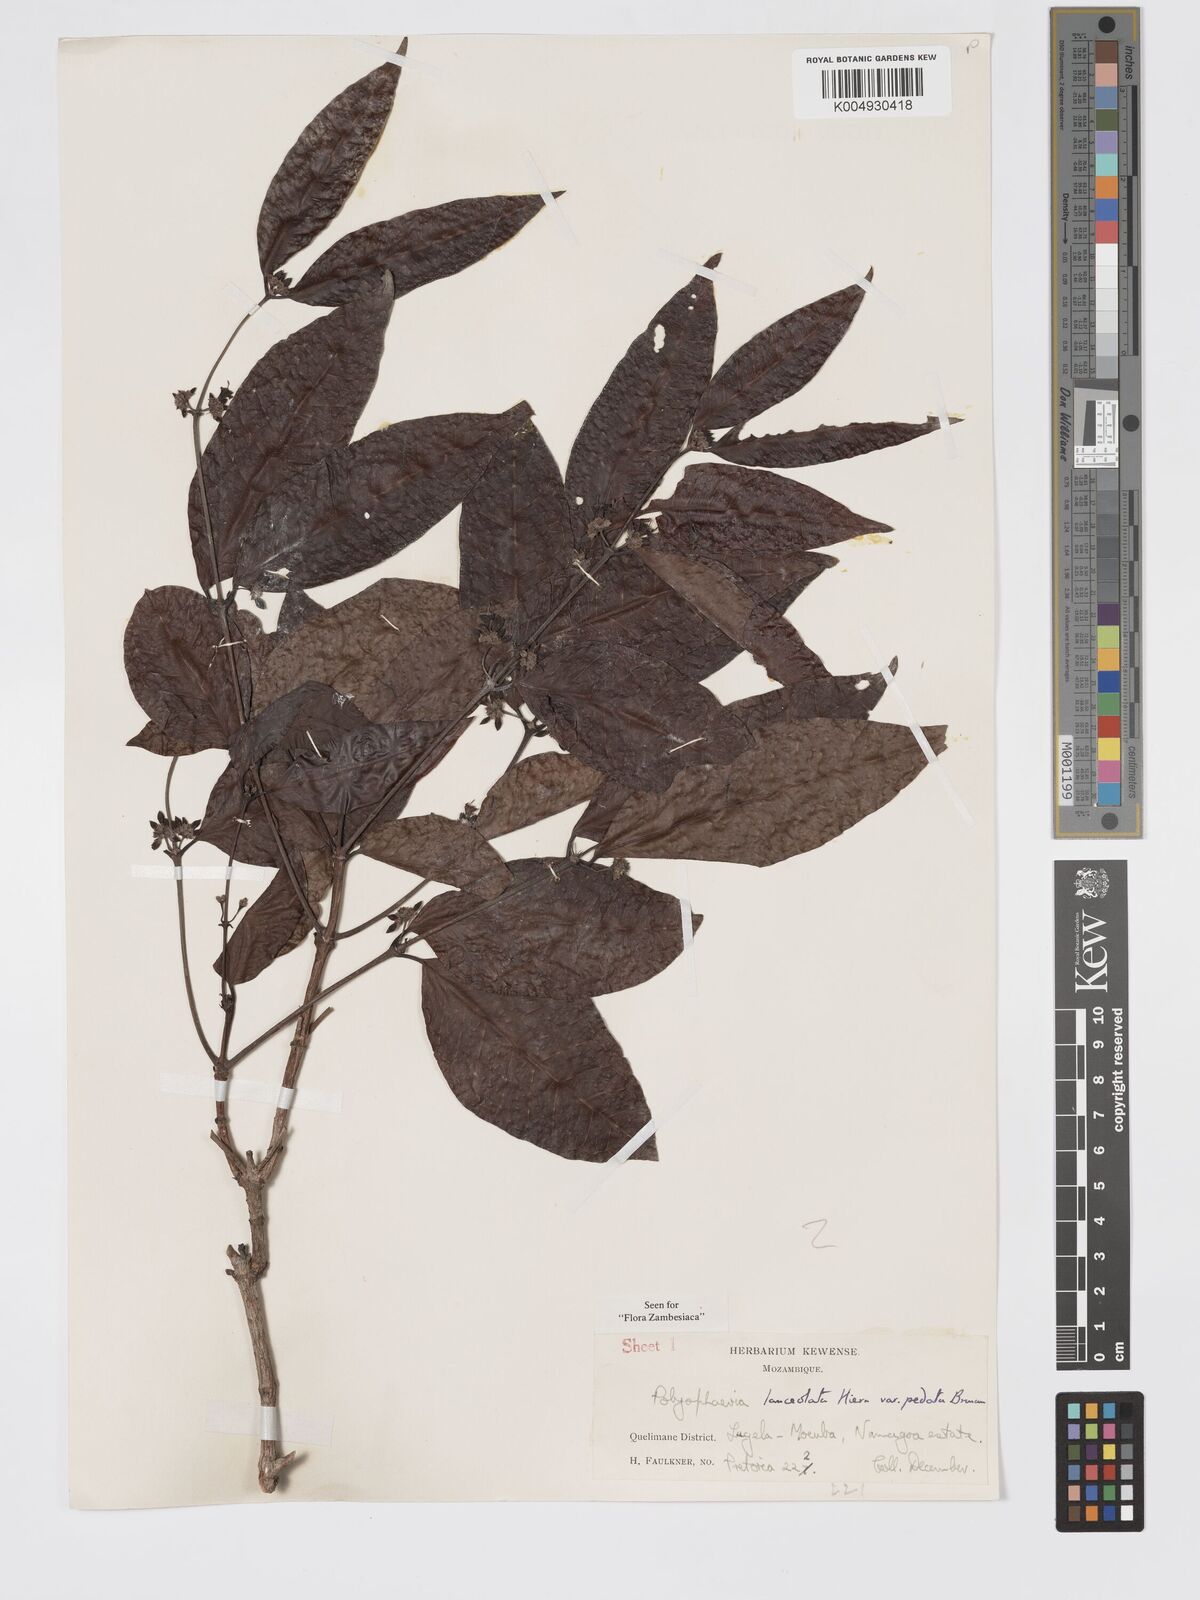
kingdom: Plantae
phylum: Tracheophyta
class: Magnoliopsida
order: Gentianales
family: Rubiaceae
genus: Polysphaeria
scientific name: Polysphaeria lanceolata
